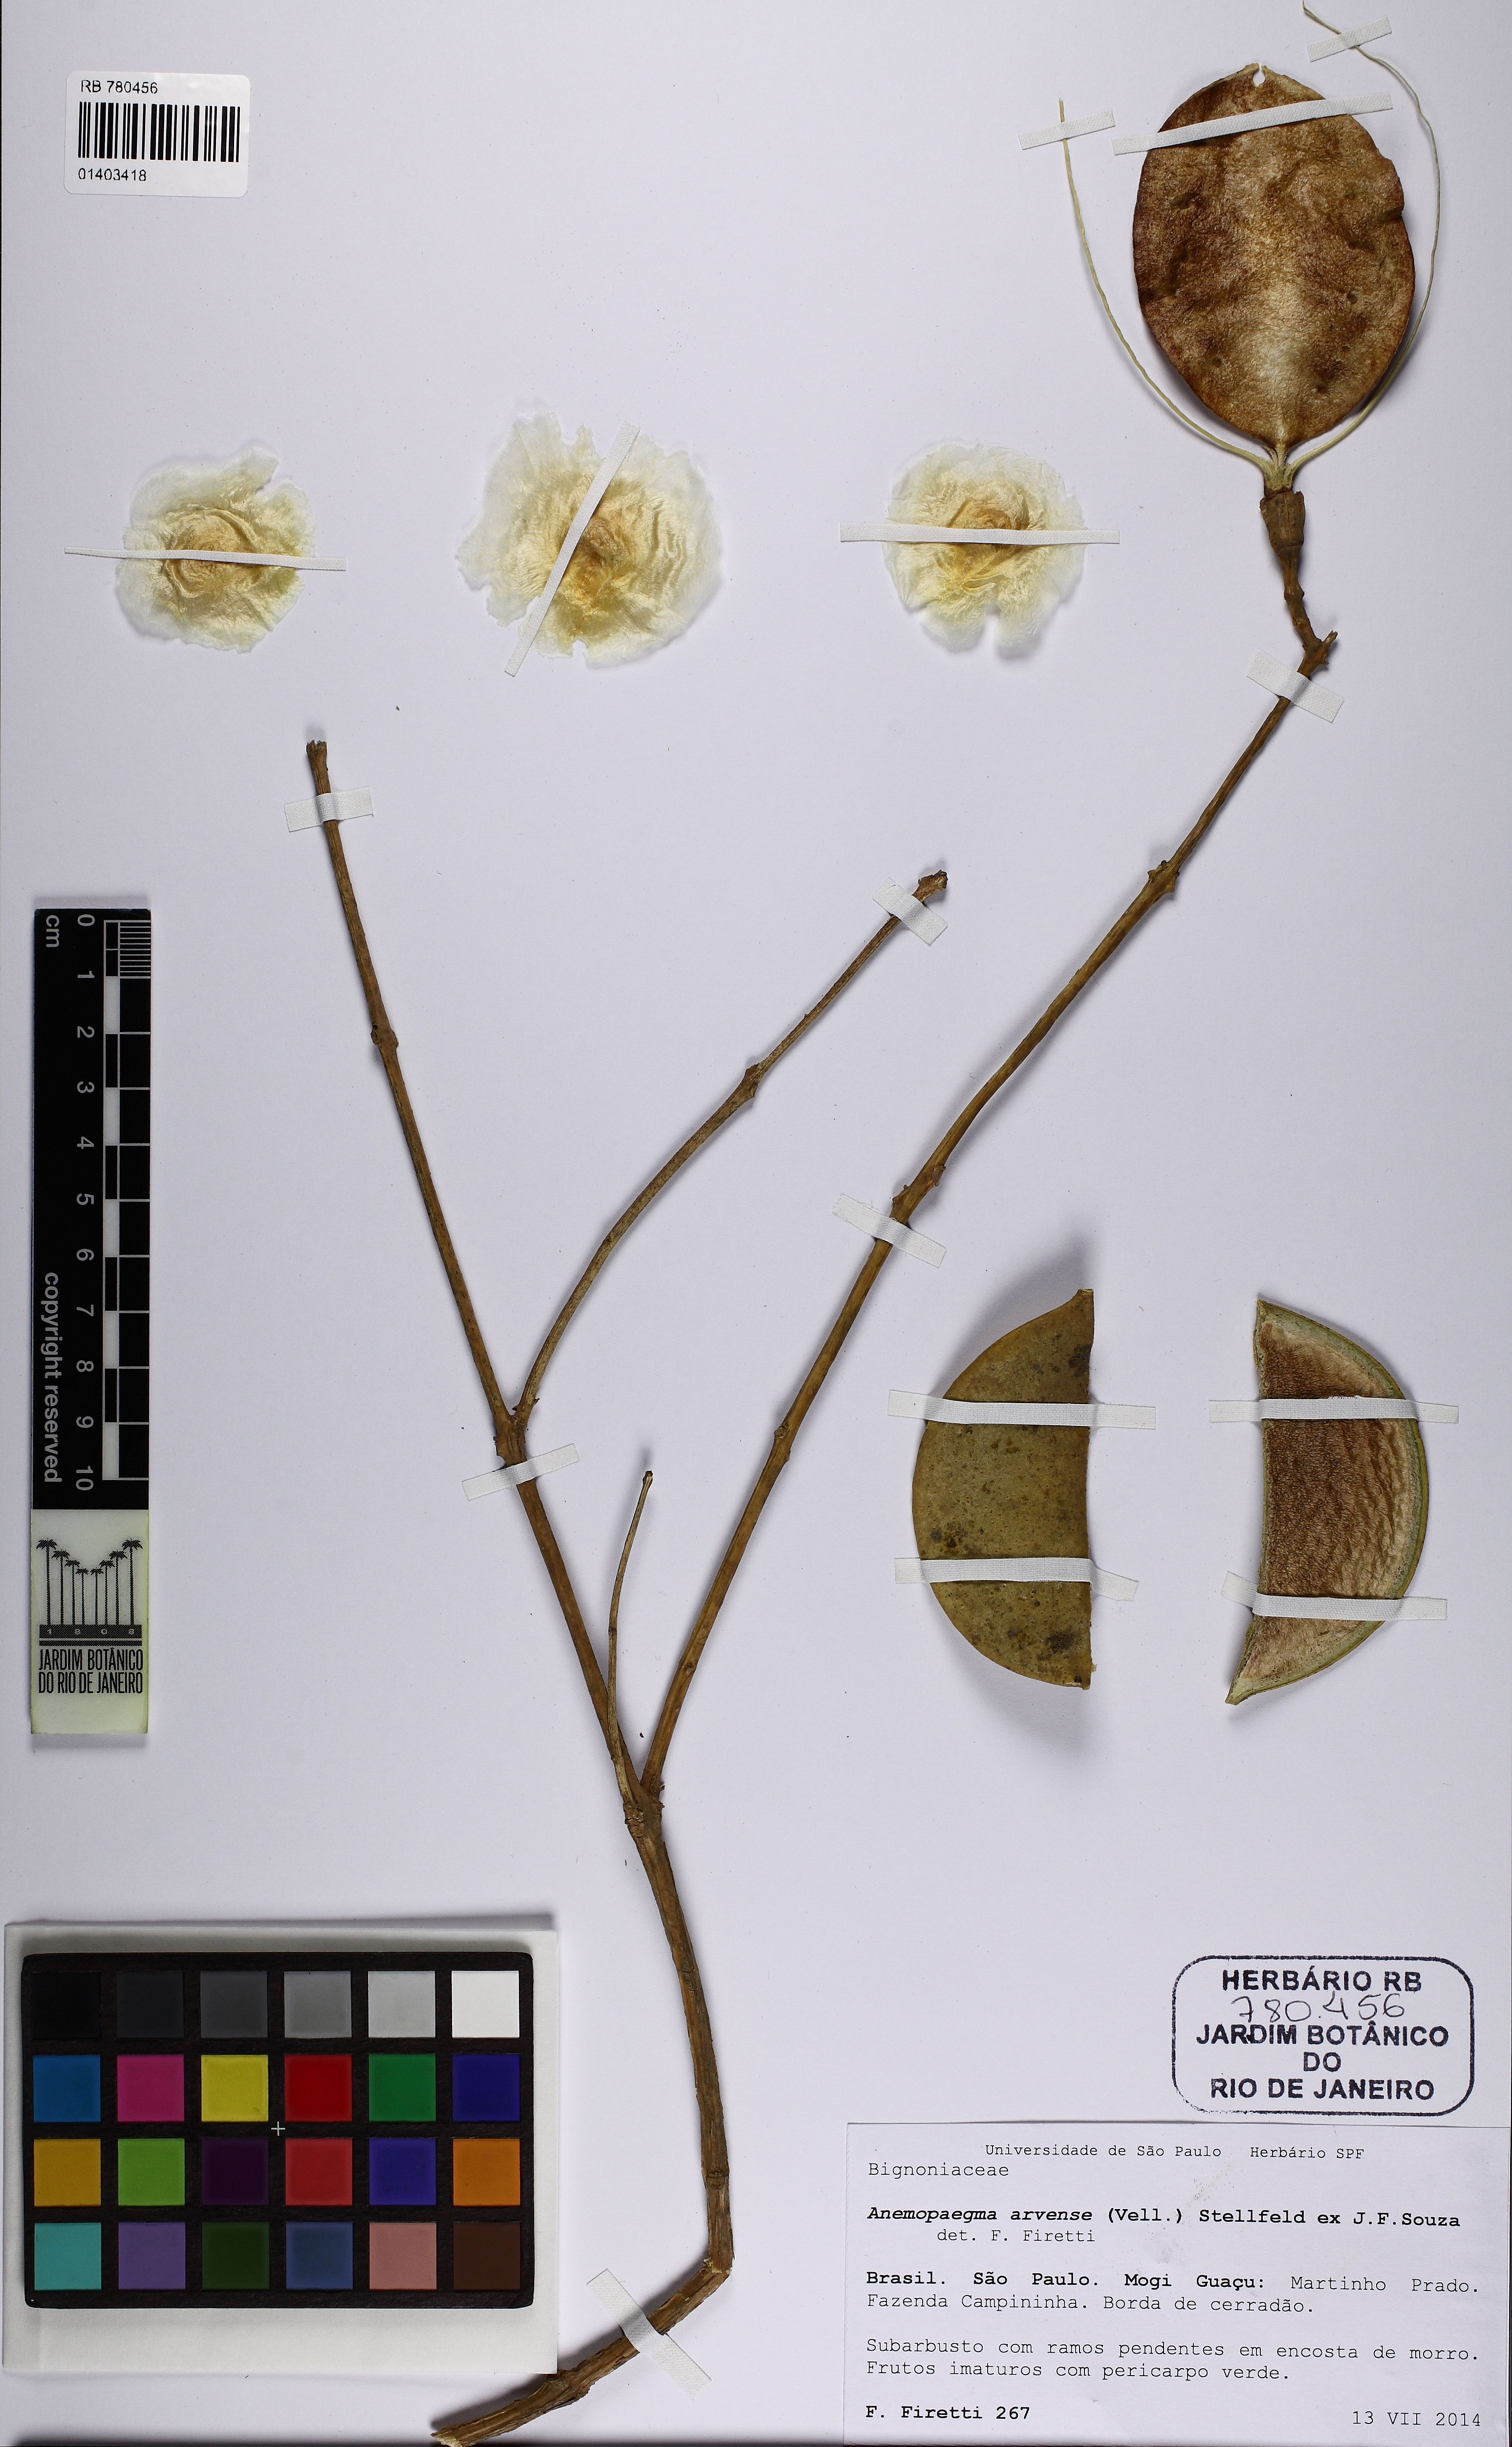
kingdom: Plantae
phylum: Tracheophyta
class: Magnoliopsida
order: Lamiales
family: Bignoniaceae
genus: Anemopaegma
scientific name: Anemopaegma arvense
